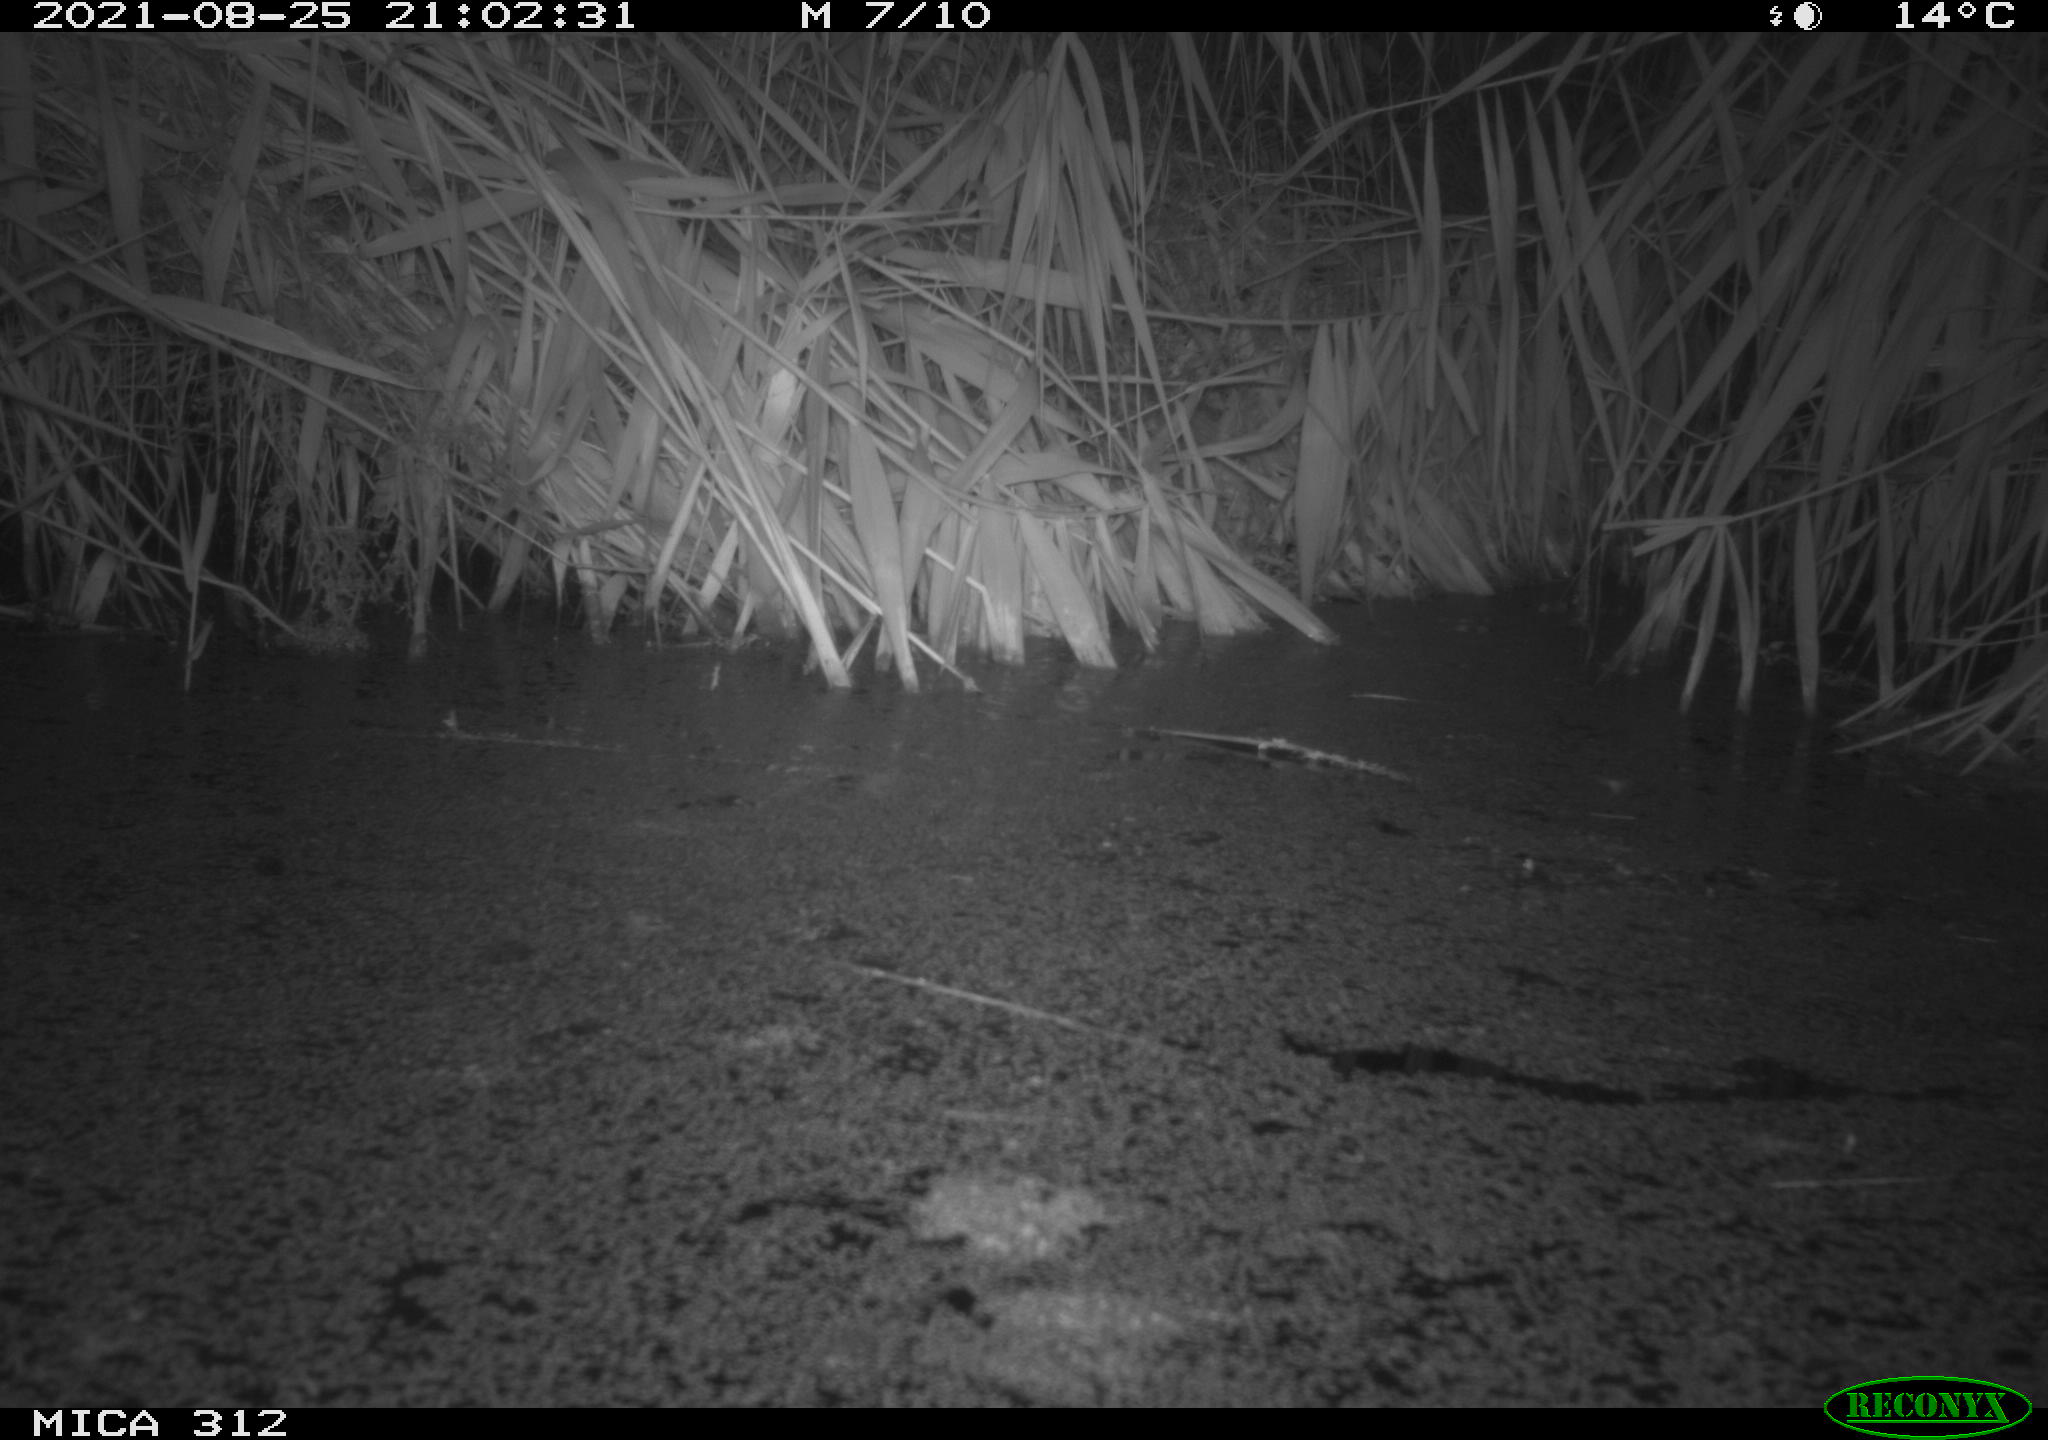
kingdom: Animalia
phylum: Chordata
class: Aves
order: Gruiformes
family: Rallidae
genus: Fulica
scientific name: Fulica atra
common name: Eurasian coot
